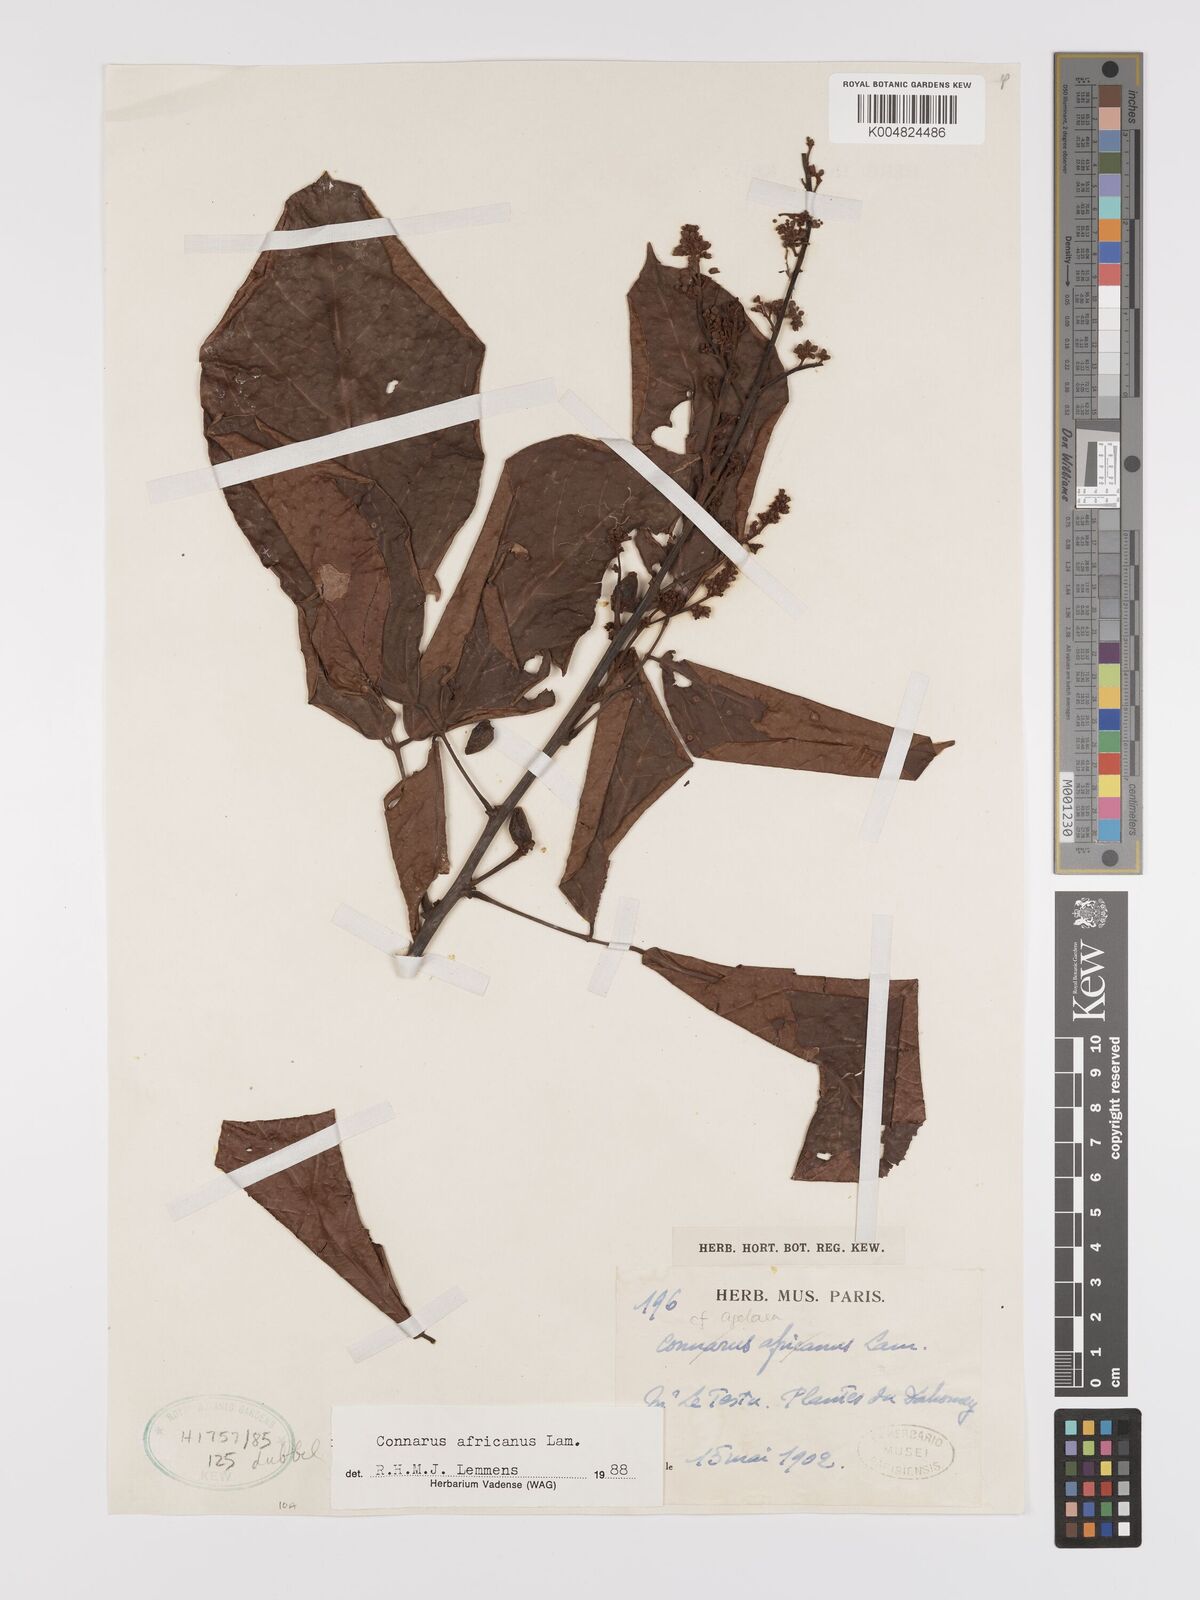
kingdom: Plantae
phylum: Tracheophyta
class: Magnoliopsida
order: Oxalidales
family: Connaraceae
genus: Connarus
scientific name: Connarus africanus
